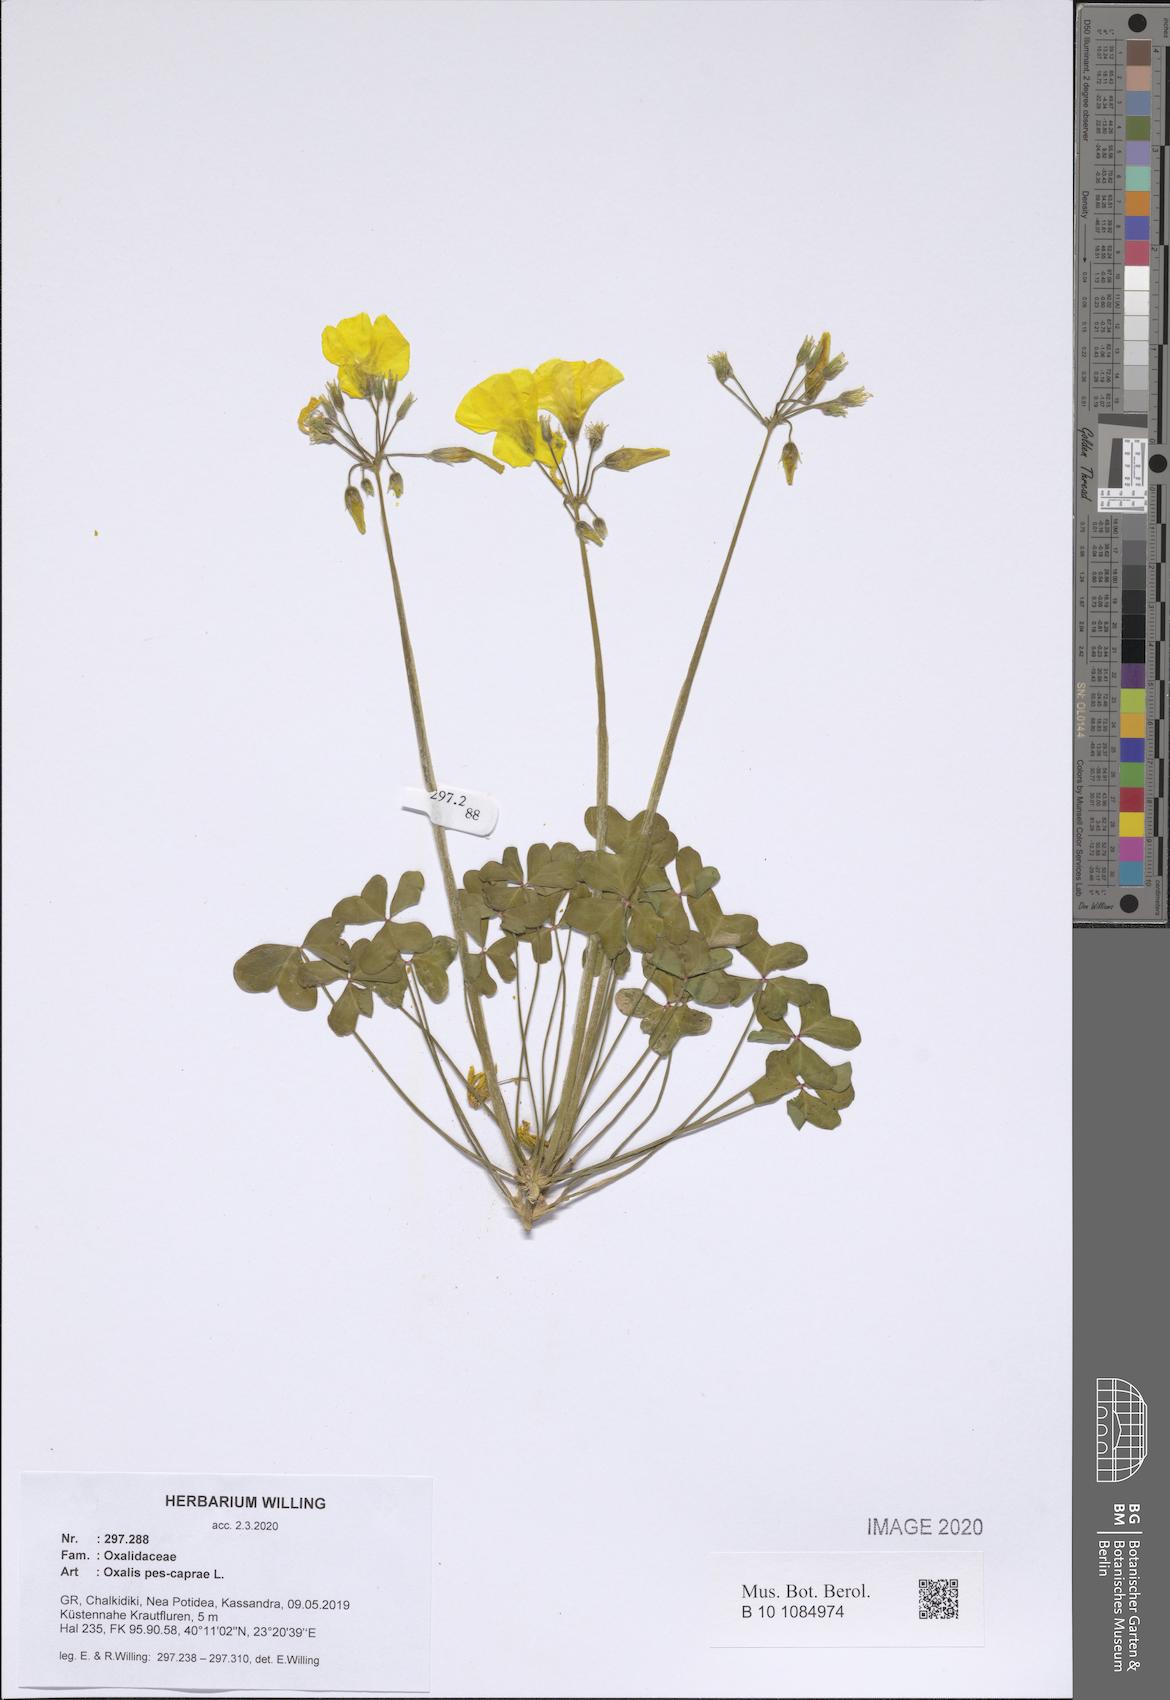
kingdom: Plantae
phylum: Tracheophyta
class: Magnoliopsida
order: Oxalidales
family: Oxalidaceae
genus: Oxalis
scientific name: Oxalis pes-caprae
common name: Bermuda-buttercup
